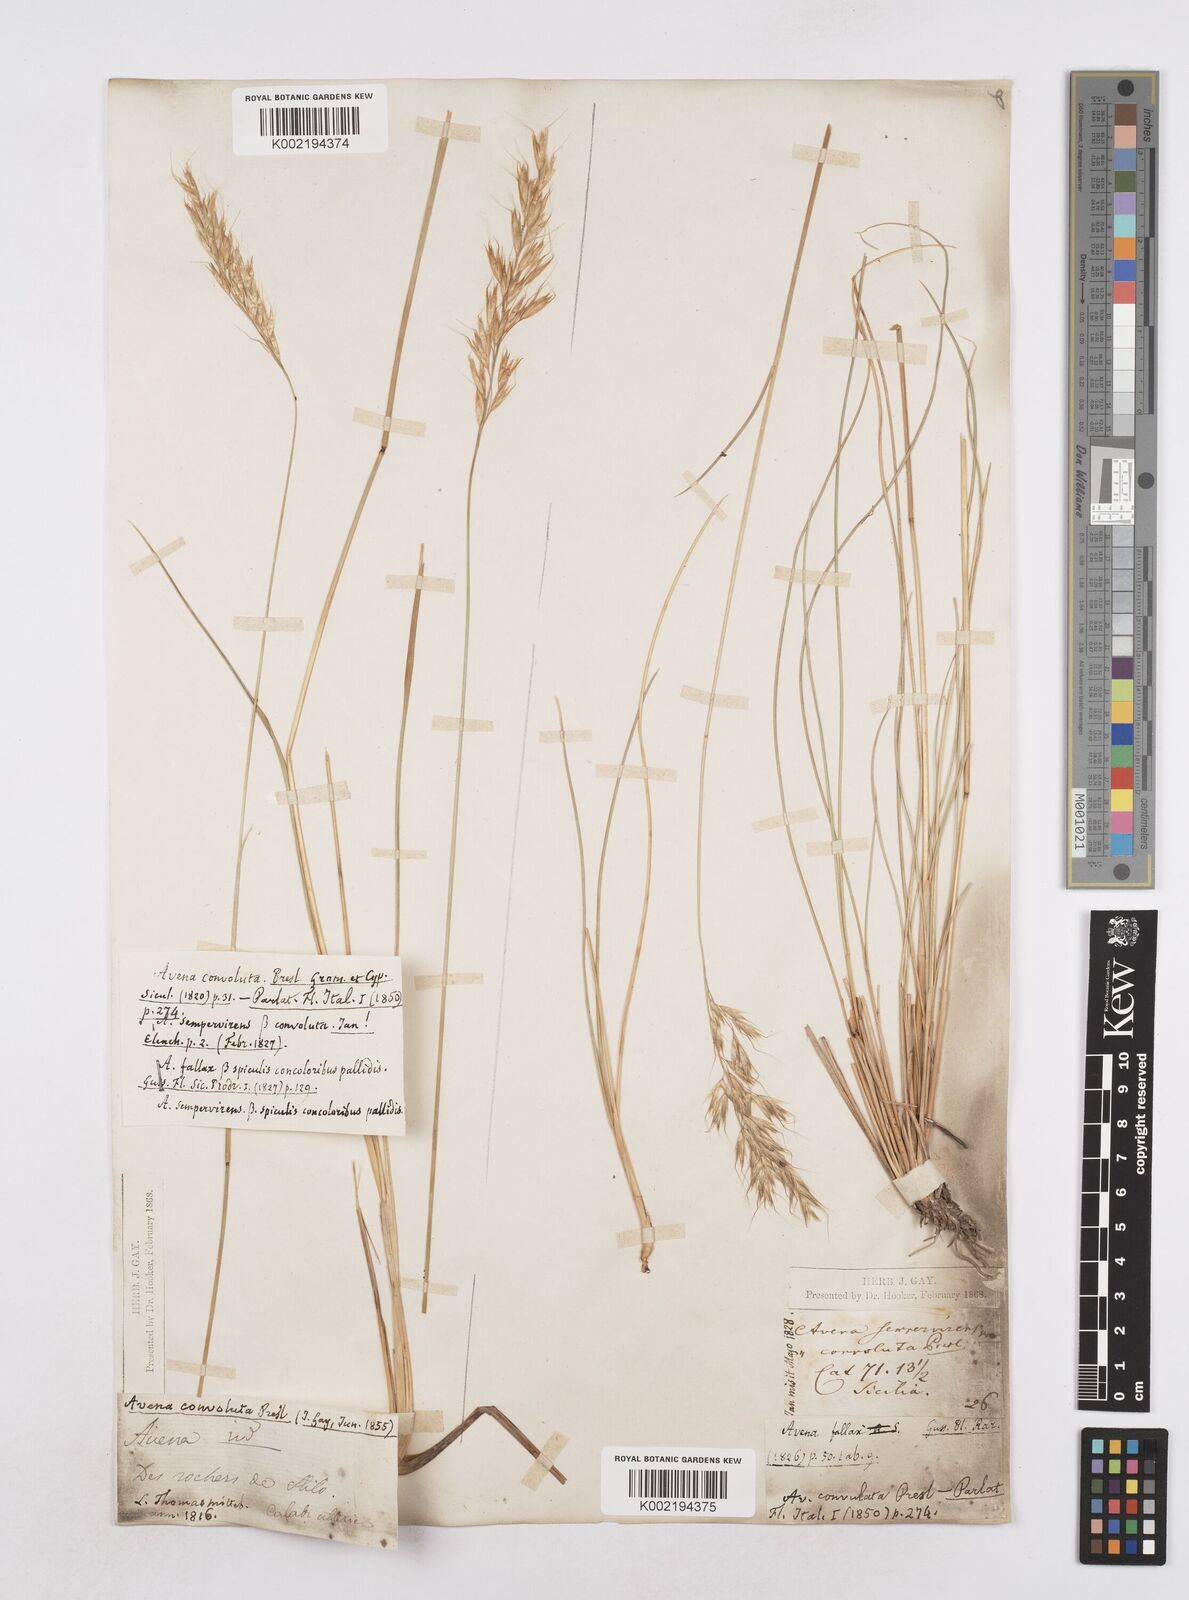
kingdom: Plantae
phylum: Tracheophyta
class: Liliopsida
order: Poales
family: Poaceae
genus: Helictotrichon
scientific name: Helictotrichon parlatorei
